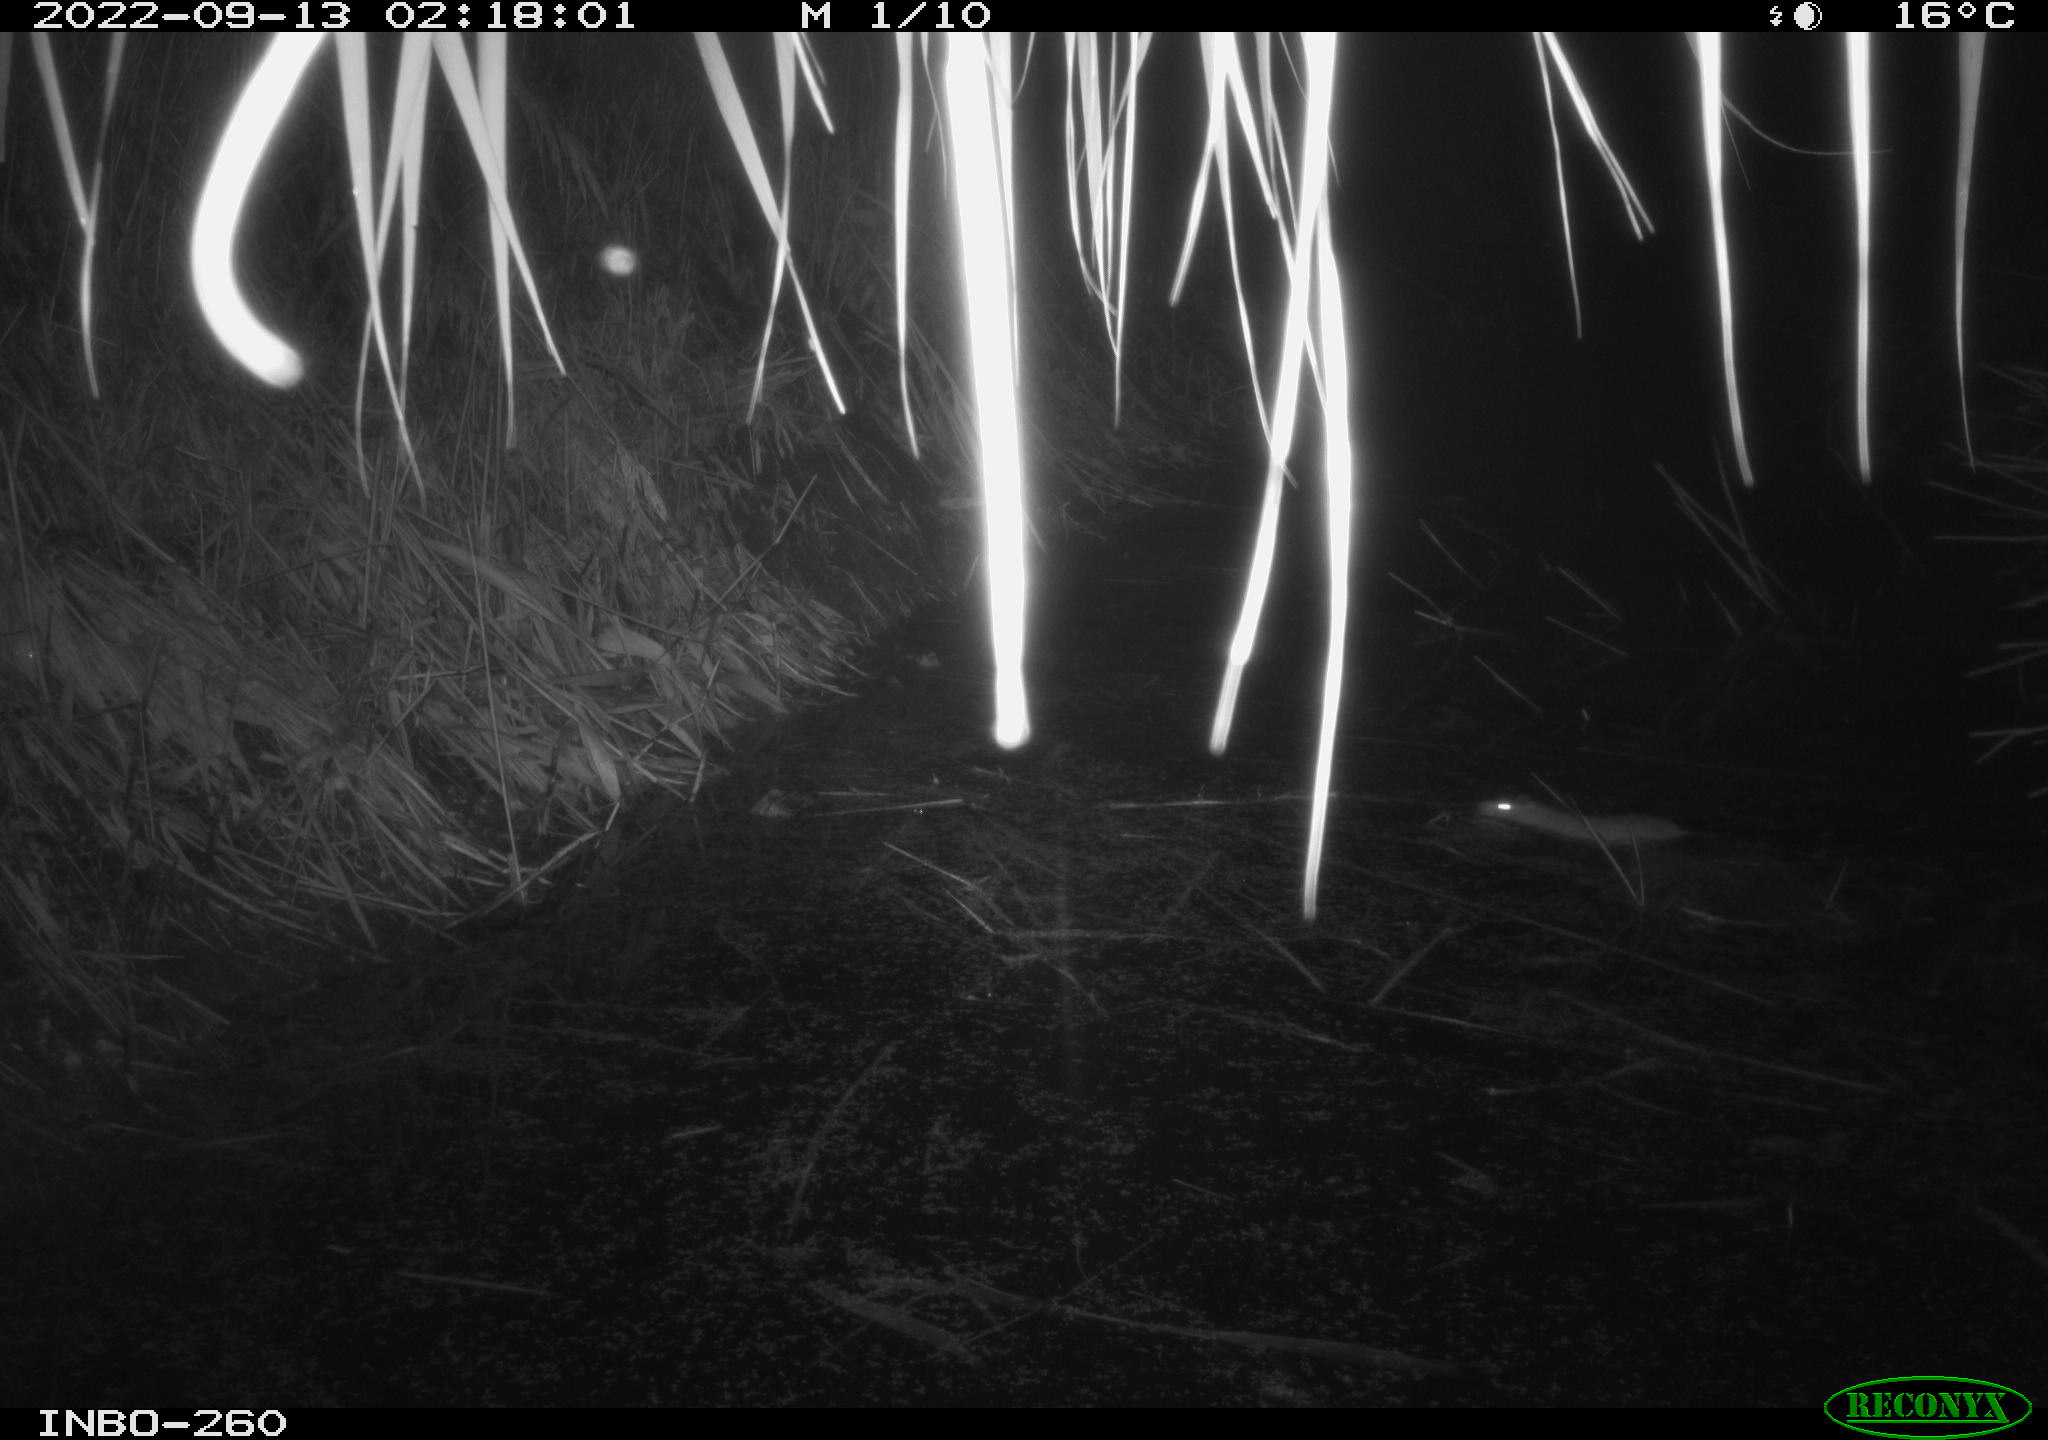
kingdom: Animalia
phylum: Chordata
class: Mammalia
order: Rodentia
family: Cricetidae
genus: Ondatra
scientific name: Ondatra zibethicus
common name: Muskrat
